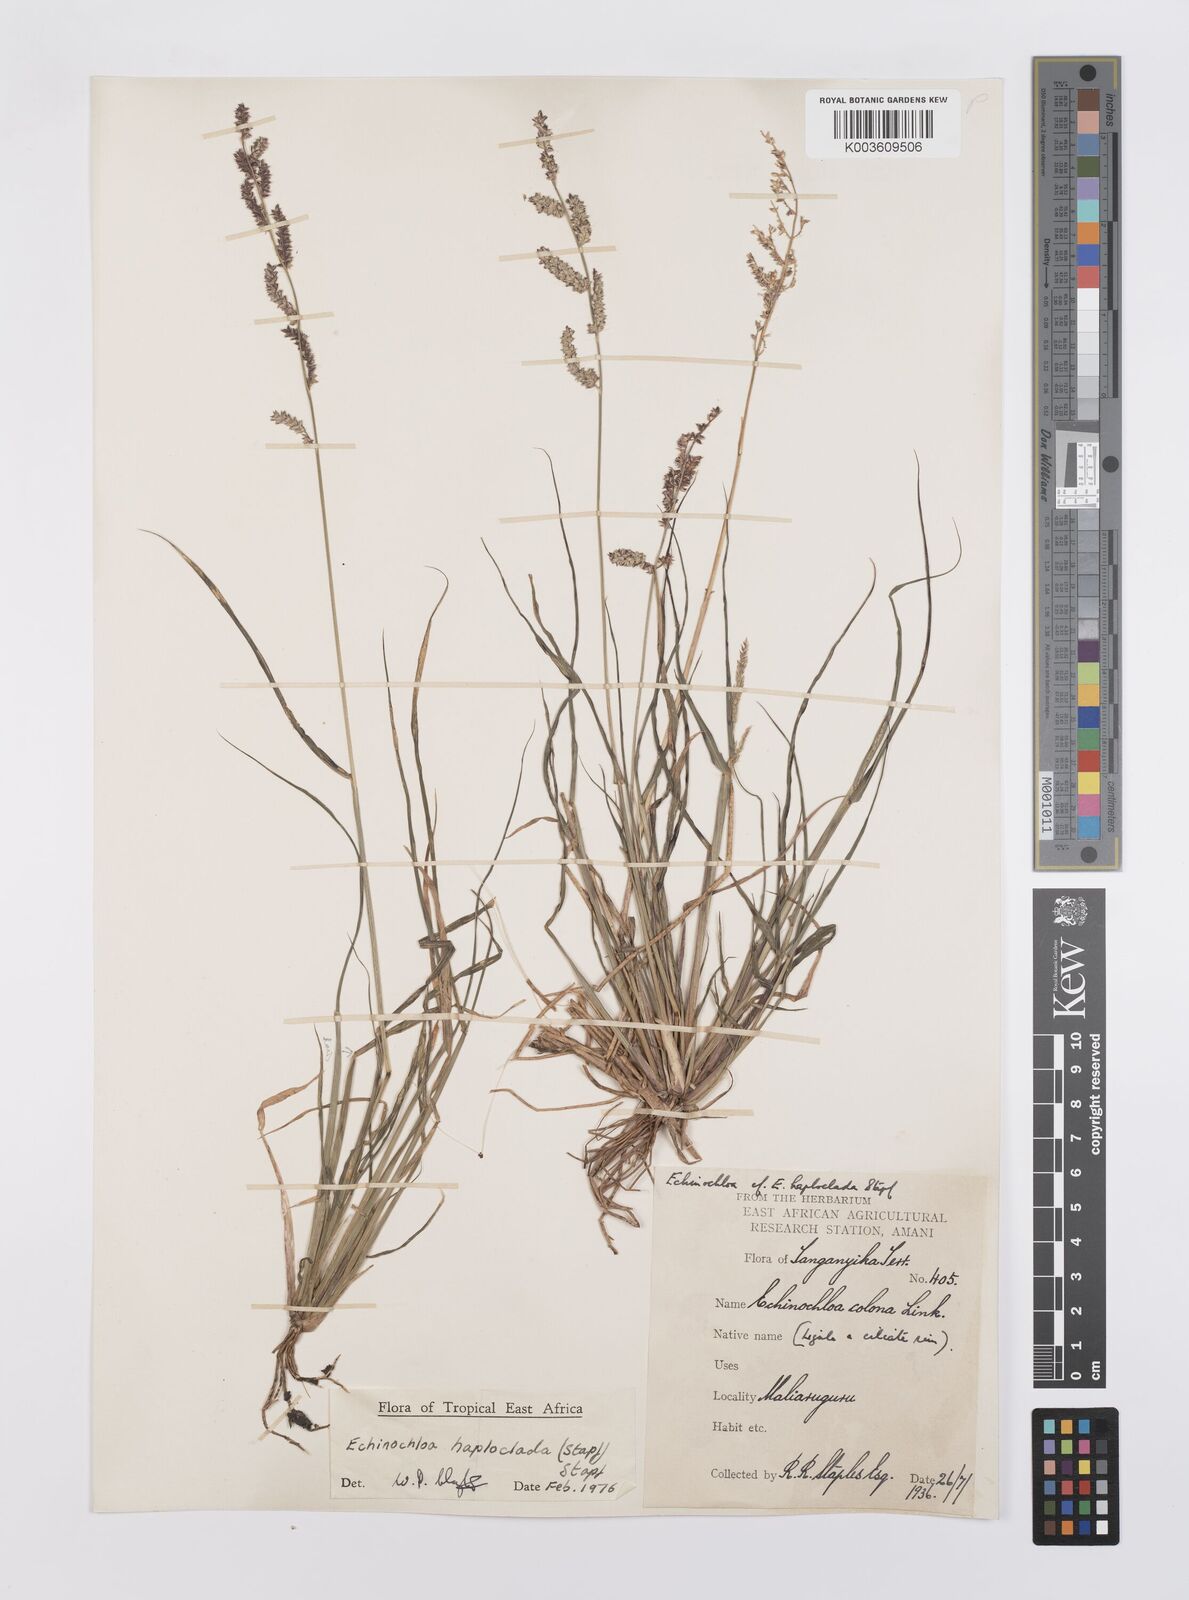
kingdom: Plantae
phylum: Tracheophyta
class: Liliopsida
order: Poales
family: Poaceae
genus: Echinochloa
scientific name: Echinochloa haploclada
